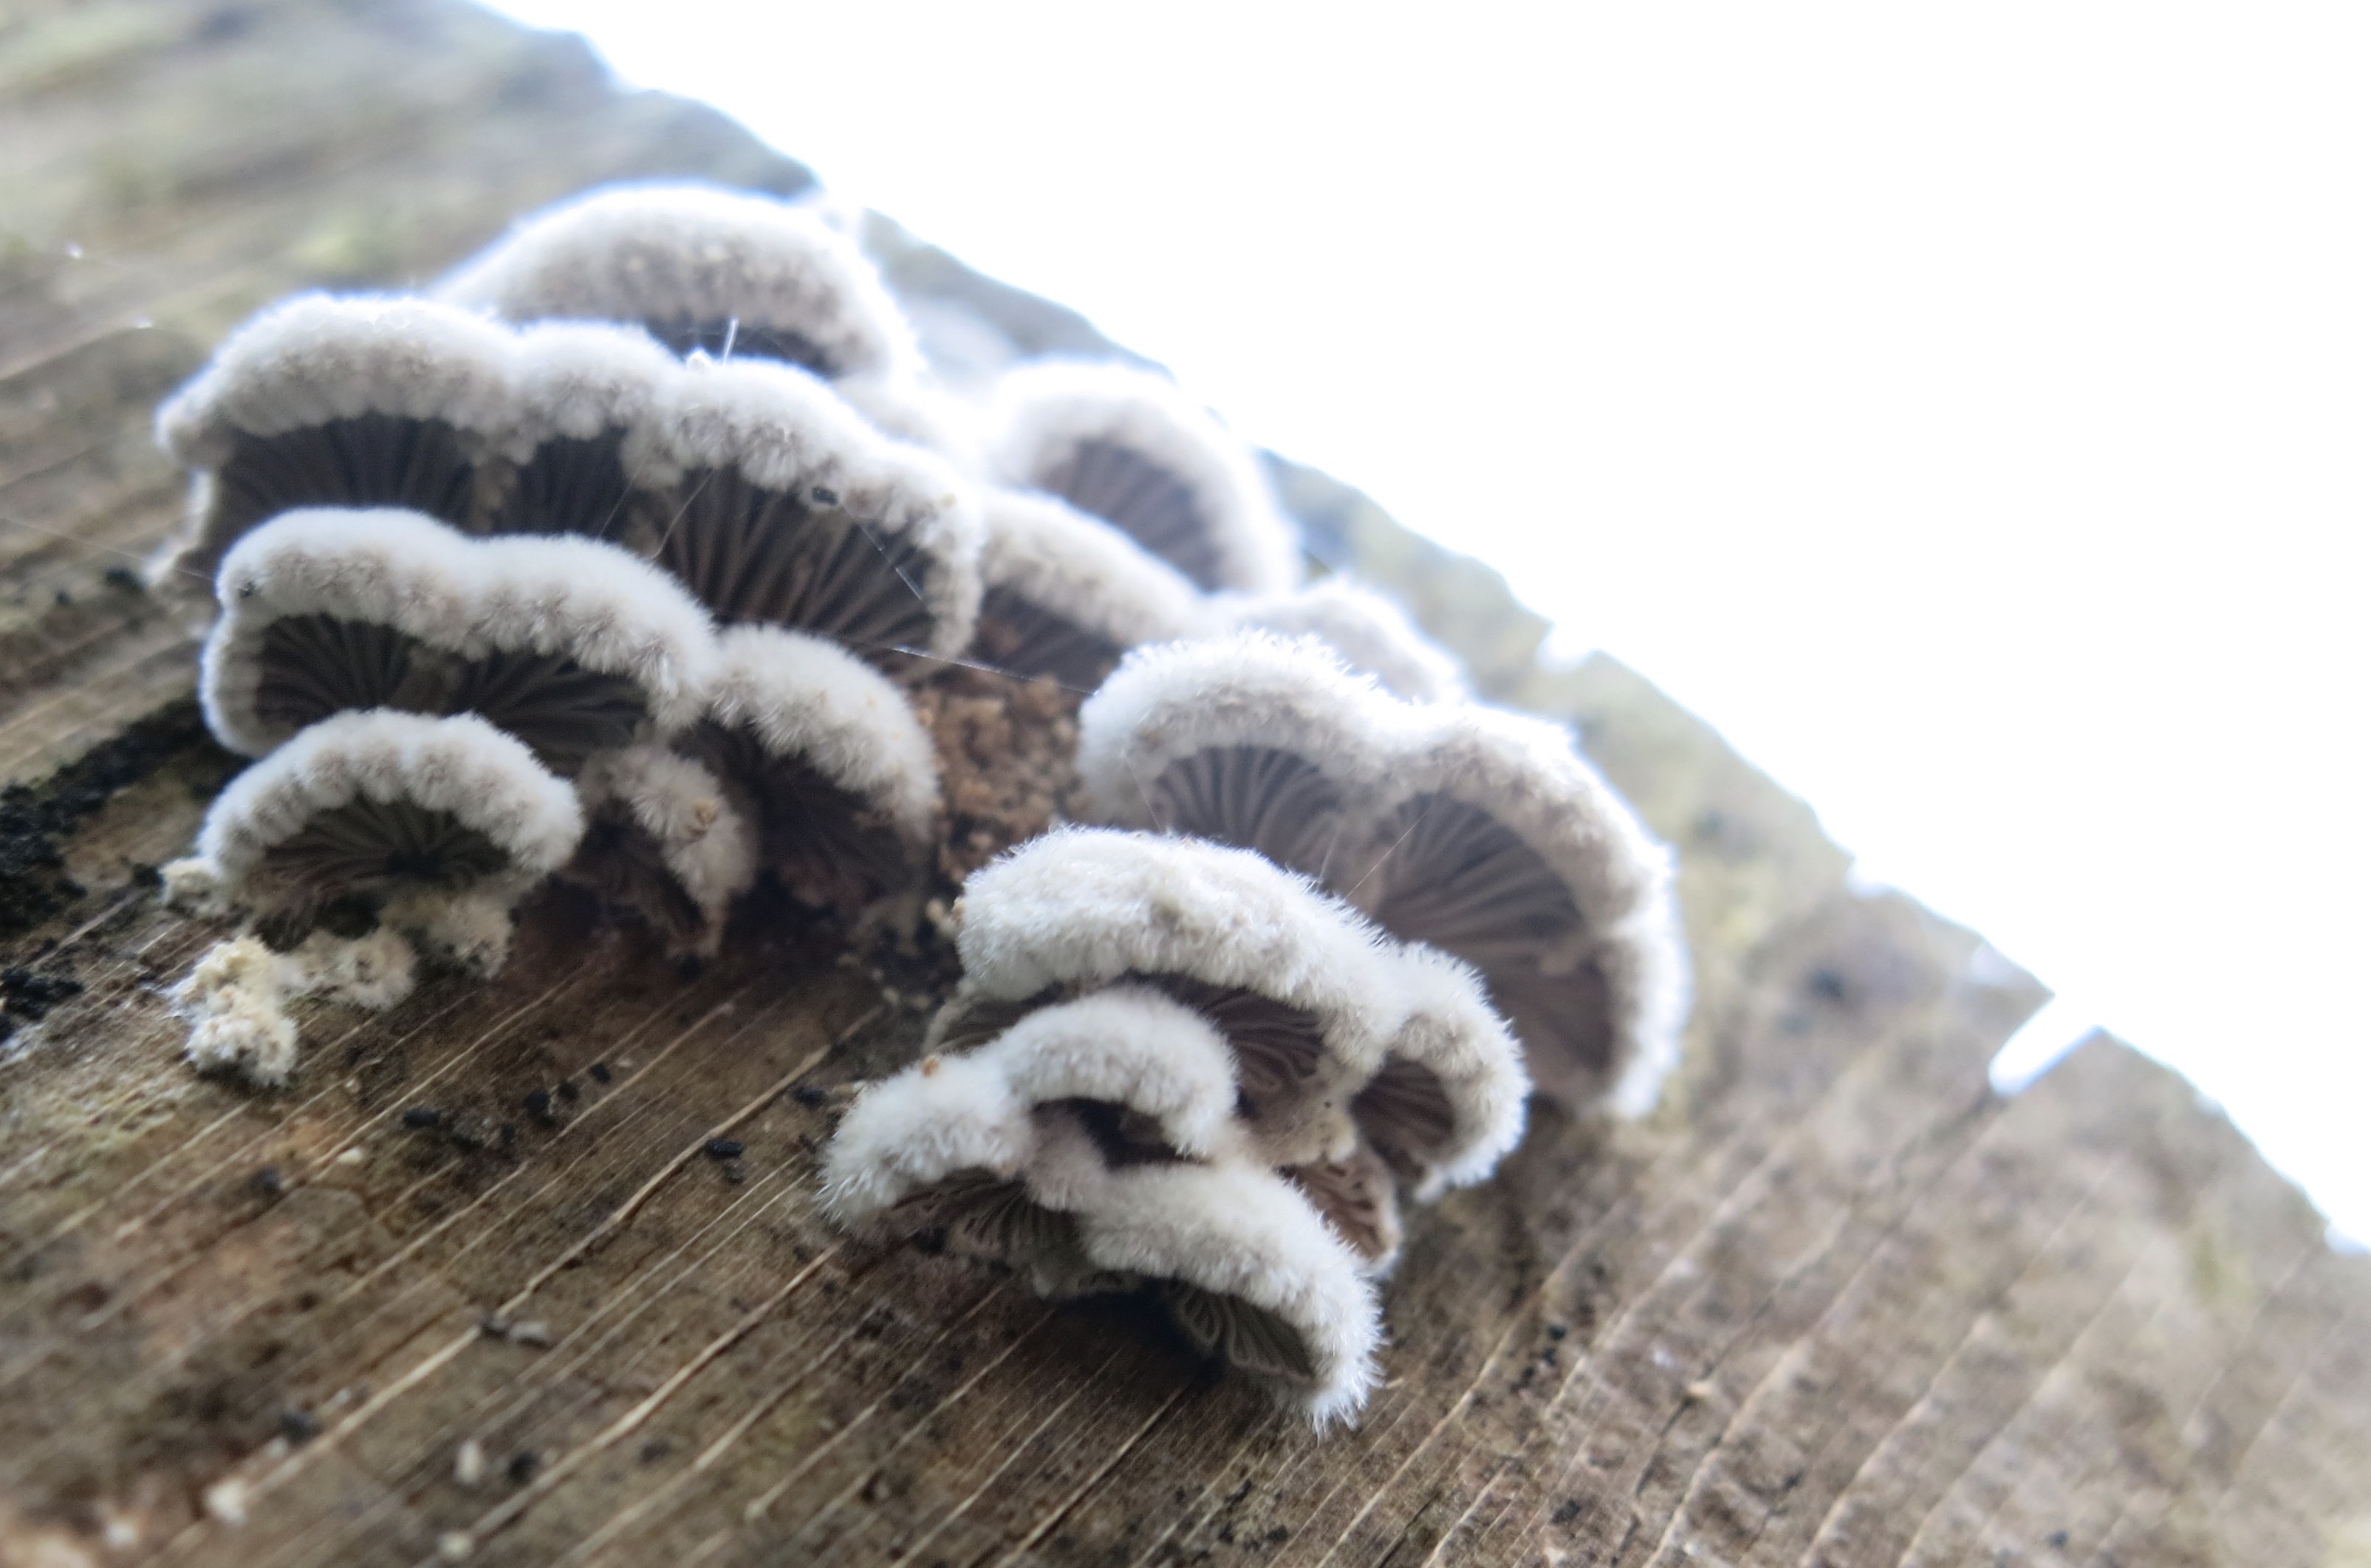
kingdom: Fungi
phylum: Basidiomycota
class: Agaricomycetes
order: Agaricales
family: Schizophyllaceae
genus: Schizophyllum
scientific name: Schizophyllum commune
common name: kløvblad
